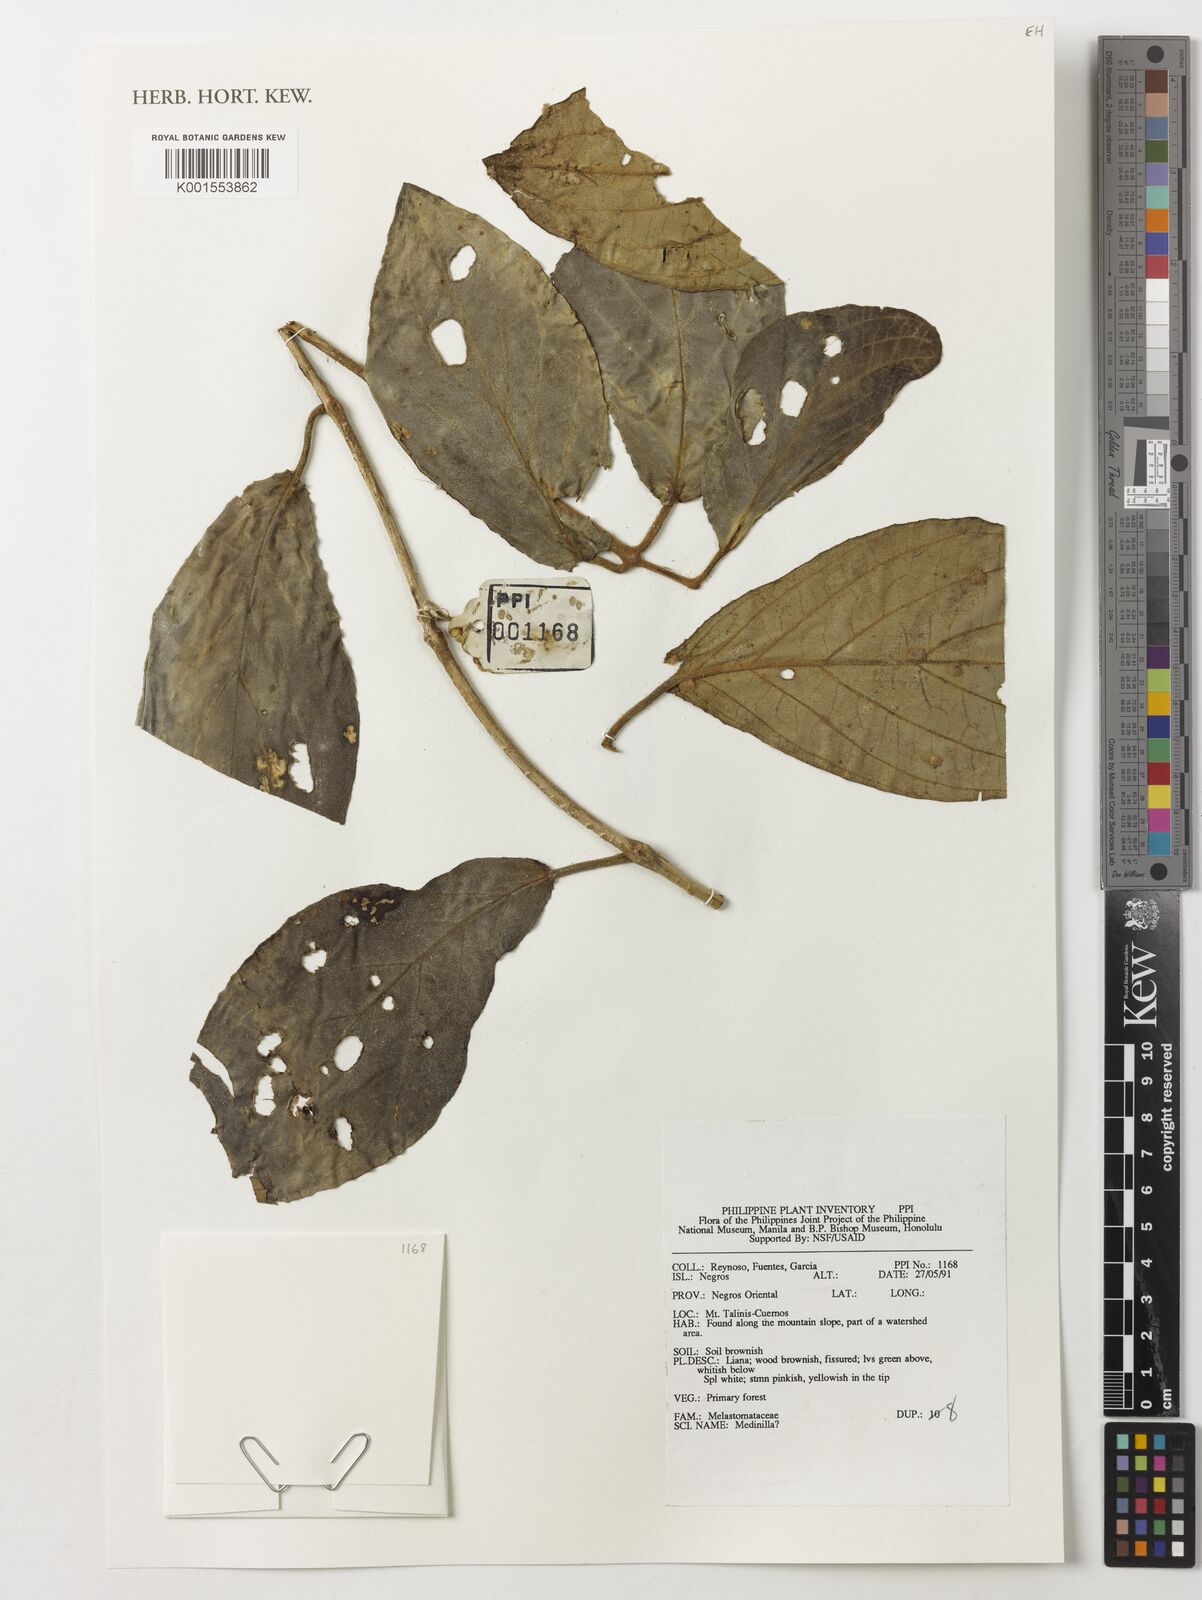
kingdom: Plantae
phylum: Tracheophyta
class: Magnoliopsida
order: Myrtales
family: Melastomataceae
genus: Medinilla
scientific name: Medinilla
